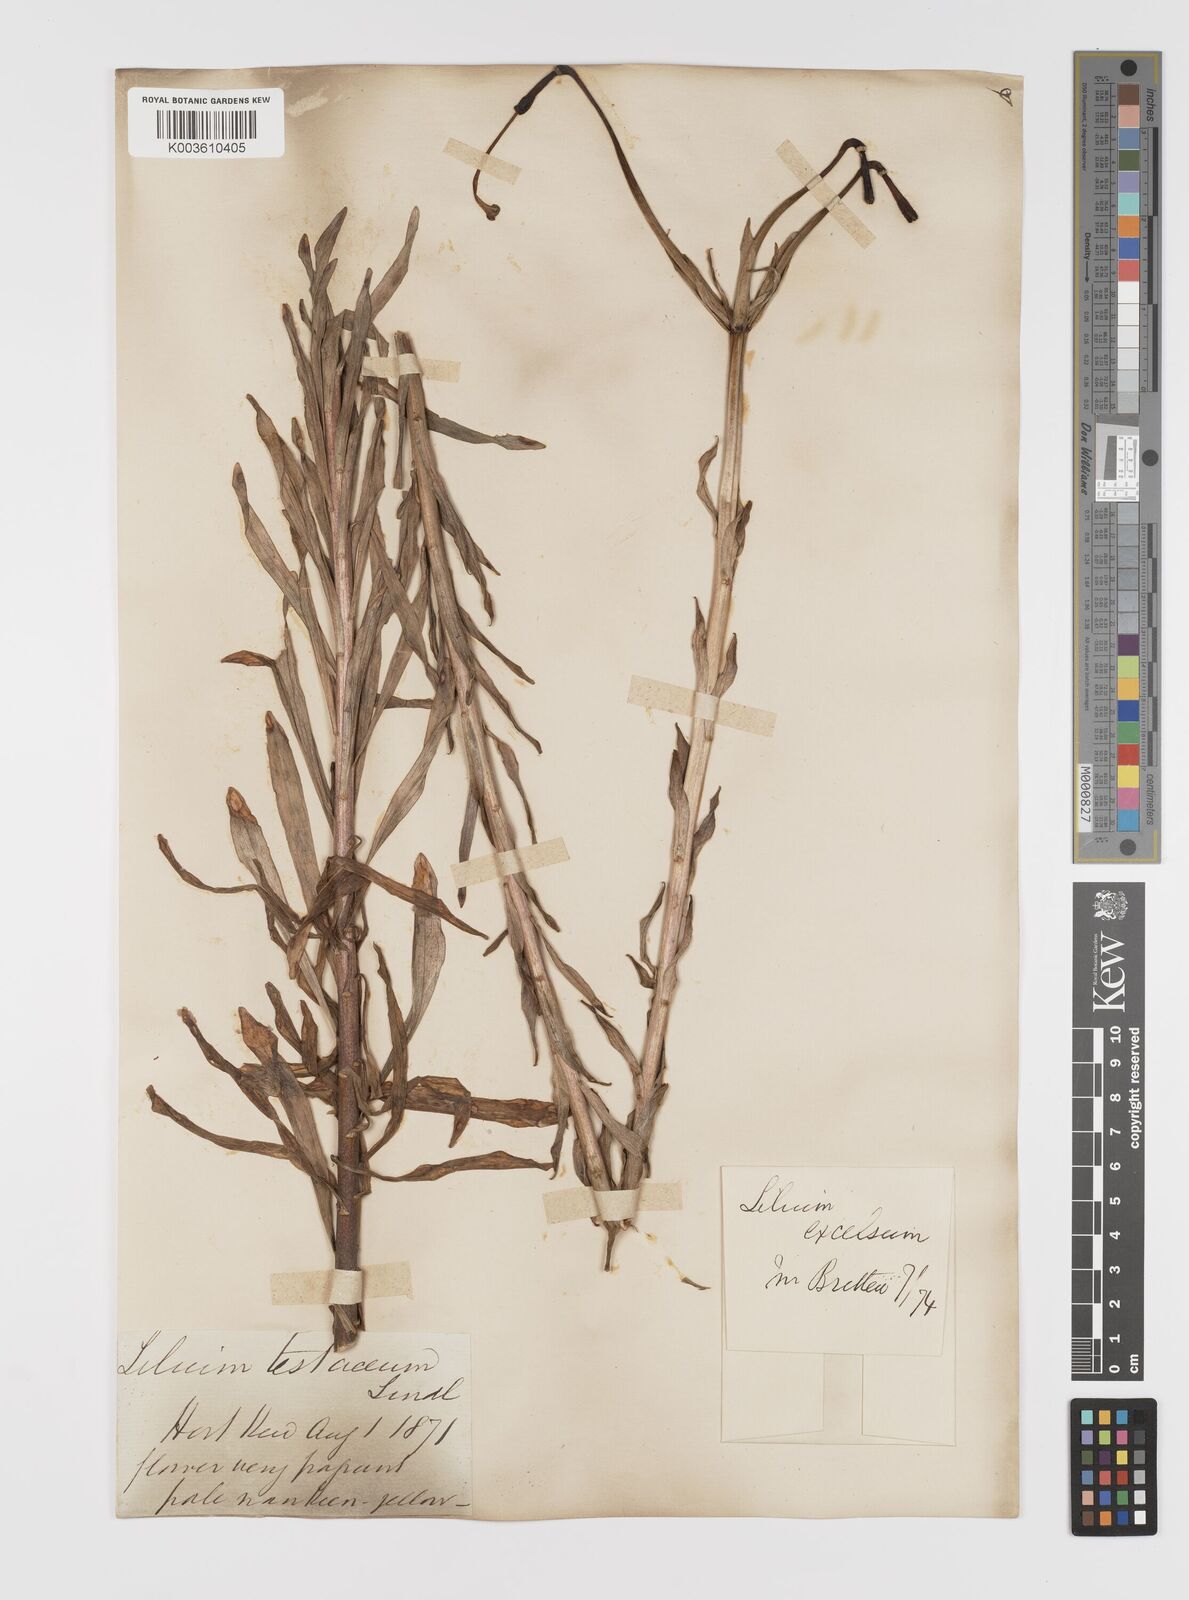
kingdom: Plantae
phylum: Tracheophyta
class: Liliopsida
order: Liliales
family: Liliaceae
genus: Lilium
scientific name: Lilium testaceum
